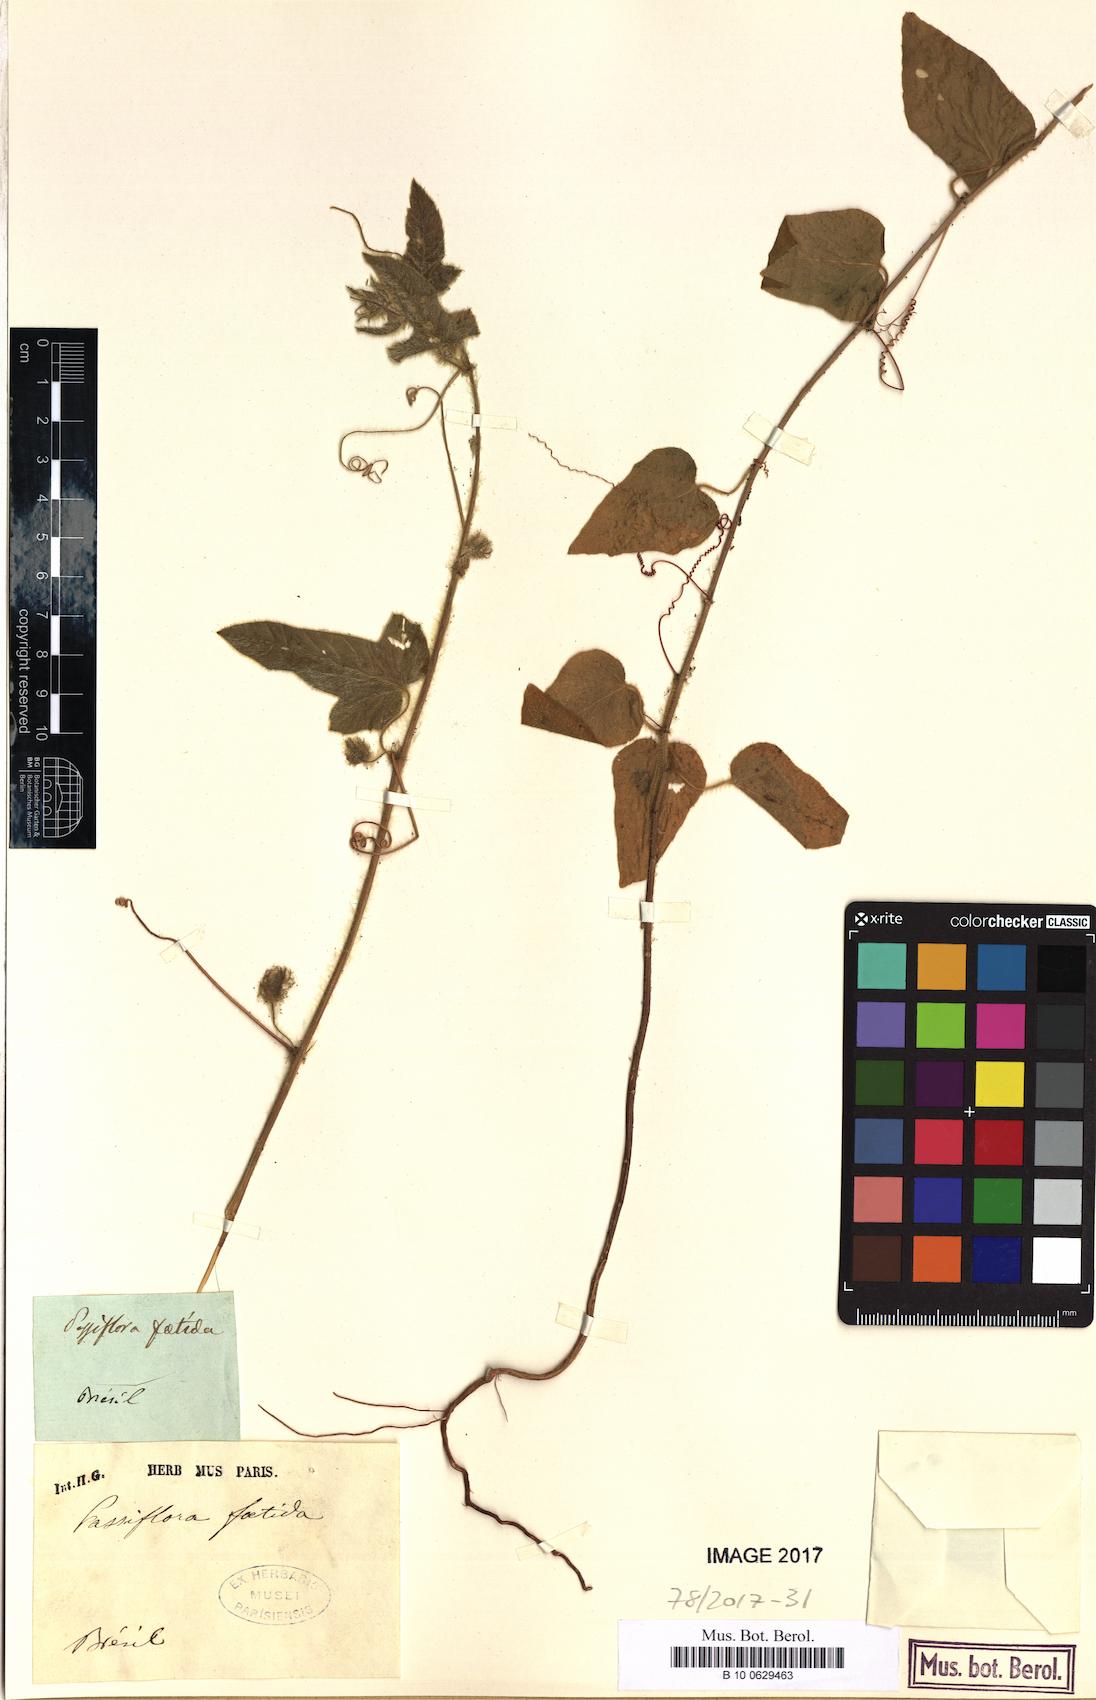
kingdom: Plantae
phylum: Tracheophyta
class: Magnoliopsida
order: Malpighiales
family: Passifloraceae
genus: Passiflora
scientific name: Passiflora foetida
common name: Fetid passionflower
